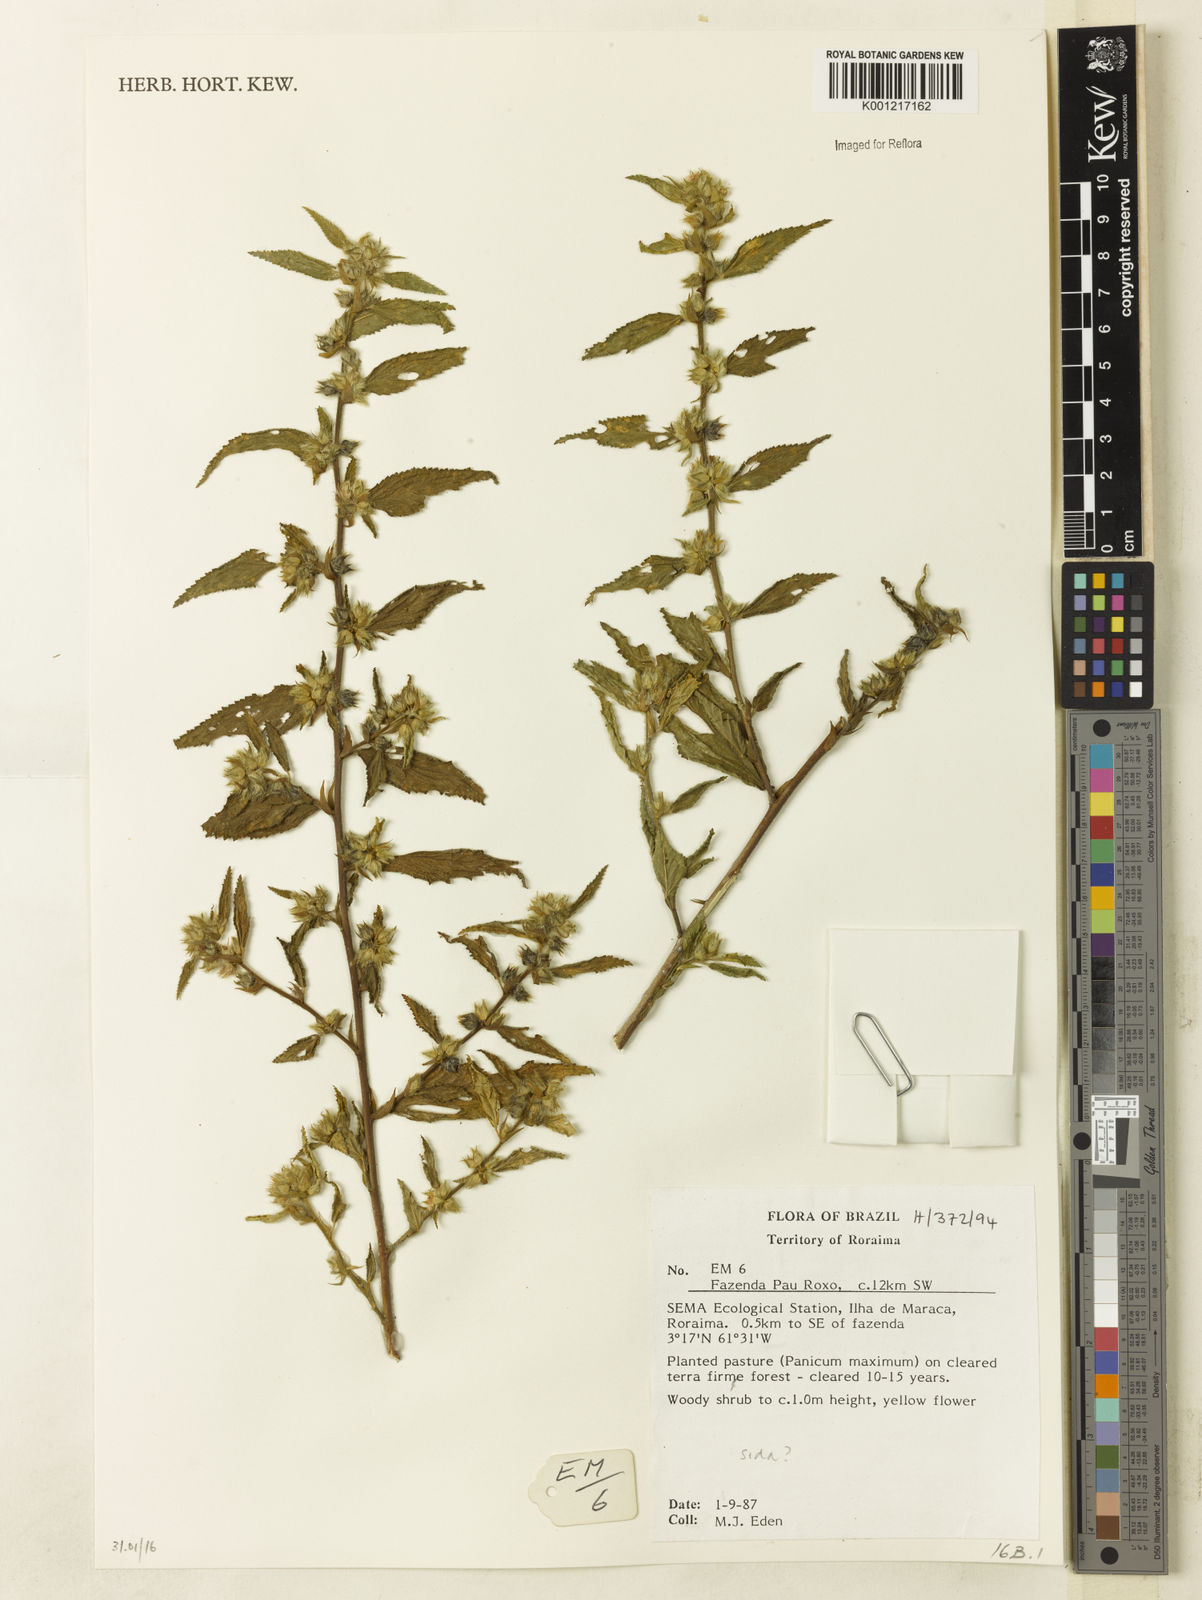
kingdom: Plantae
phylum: Tracheophyta
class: Magnoliopsida
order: Malvales
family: Malvaceae
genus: Sida
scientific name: Sida
